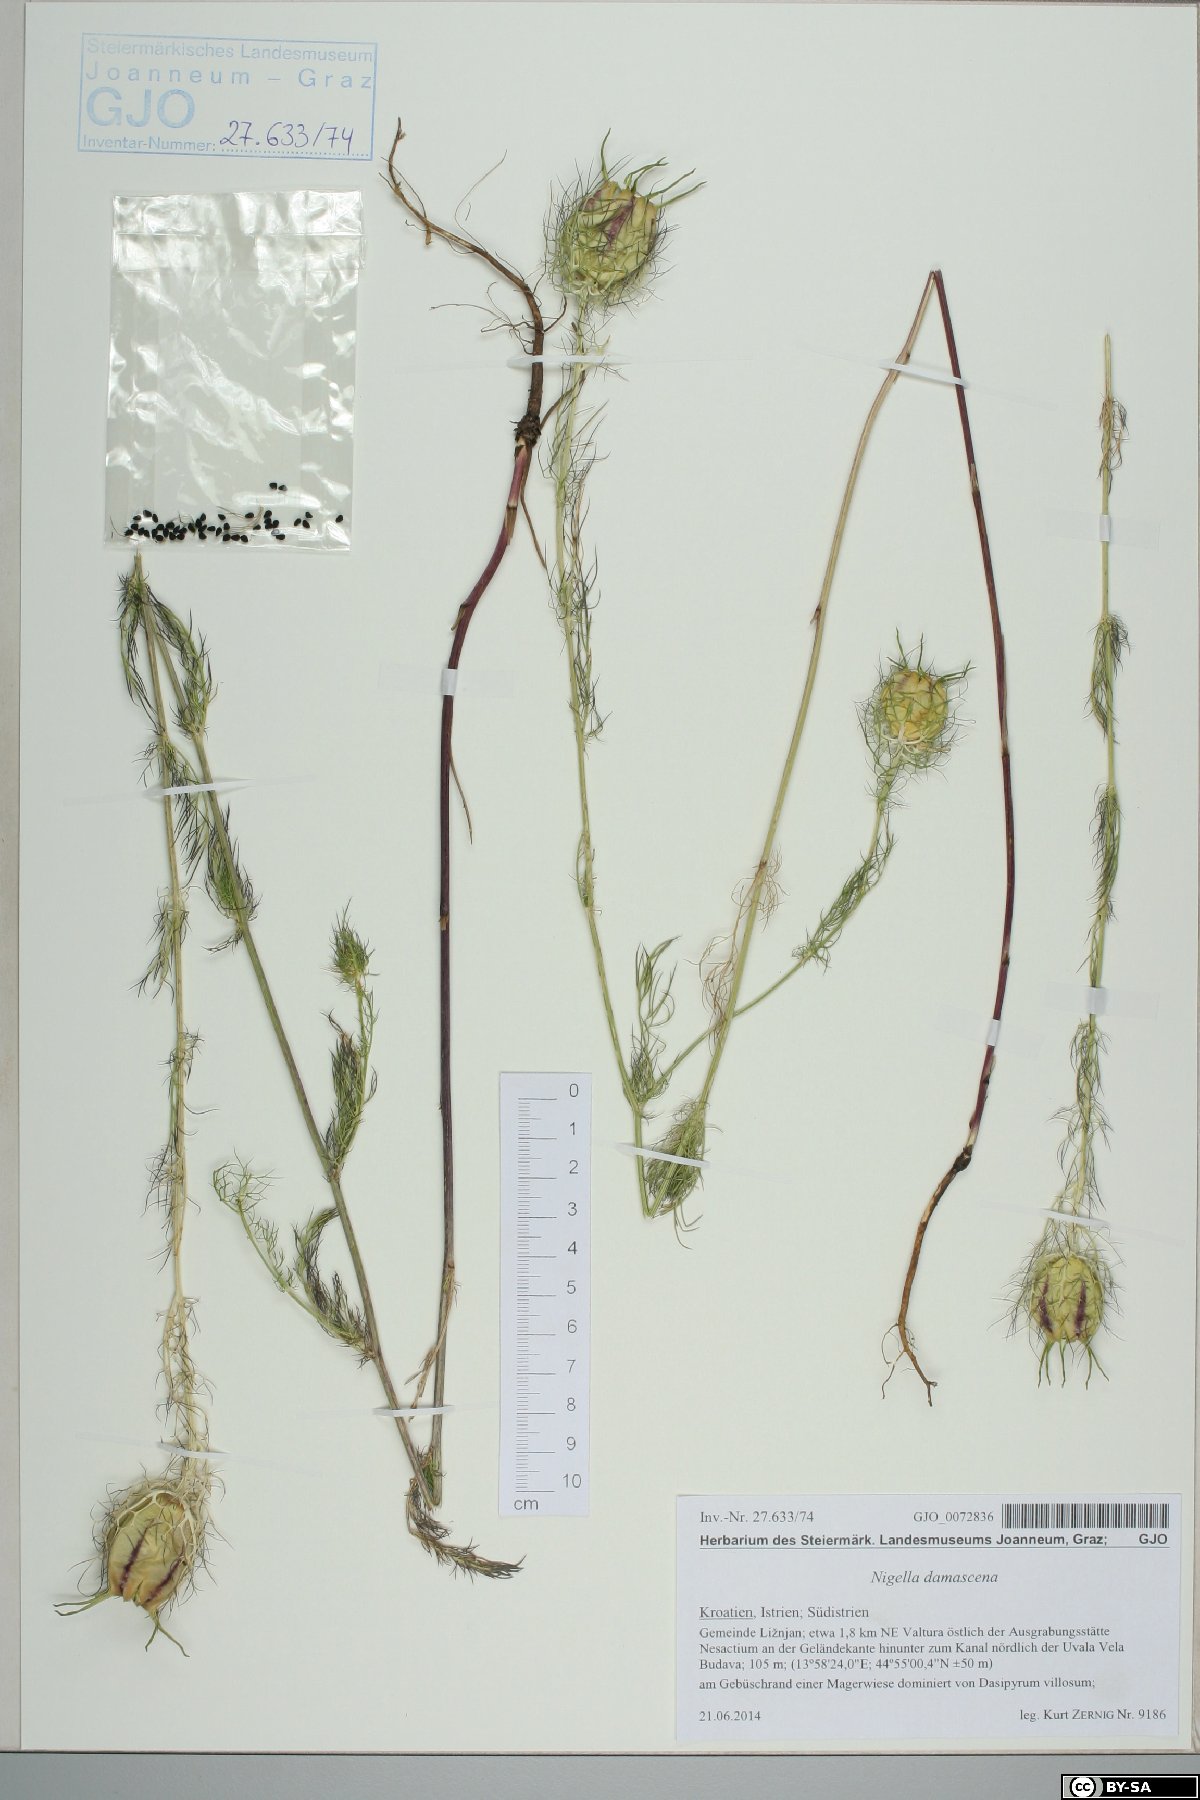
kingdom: Plantae
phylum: Tracheophyta
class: Magnoliopsida
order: Ranunculales
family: Ranunculaceae
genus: Nigella
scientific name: Nigella damascena
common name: Love-in-a-mist
